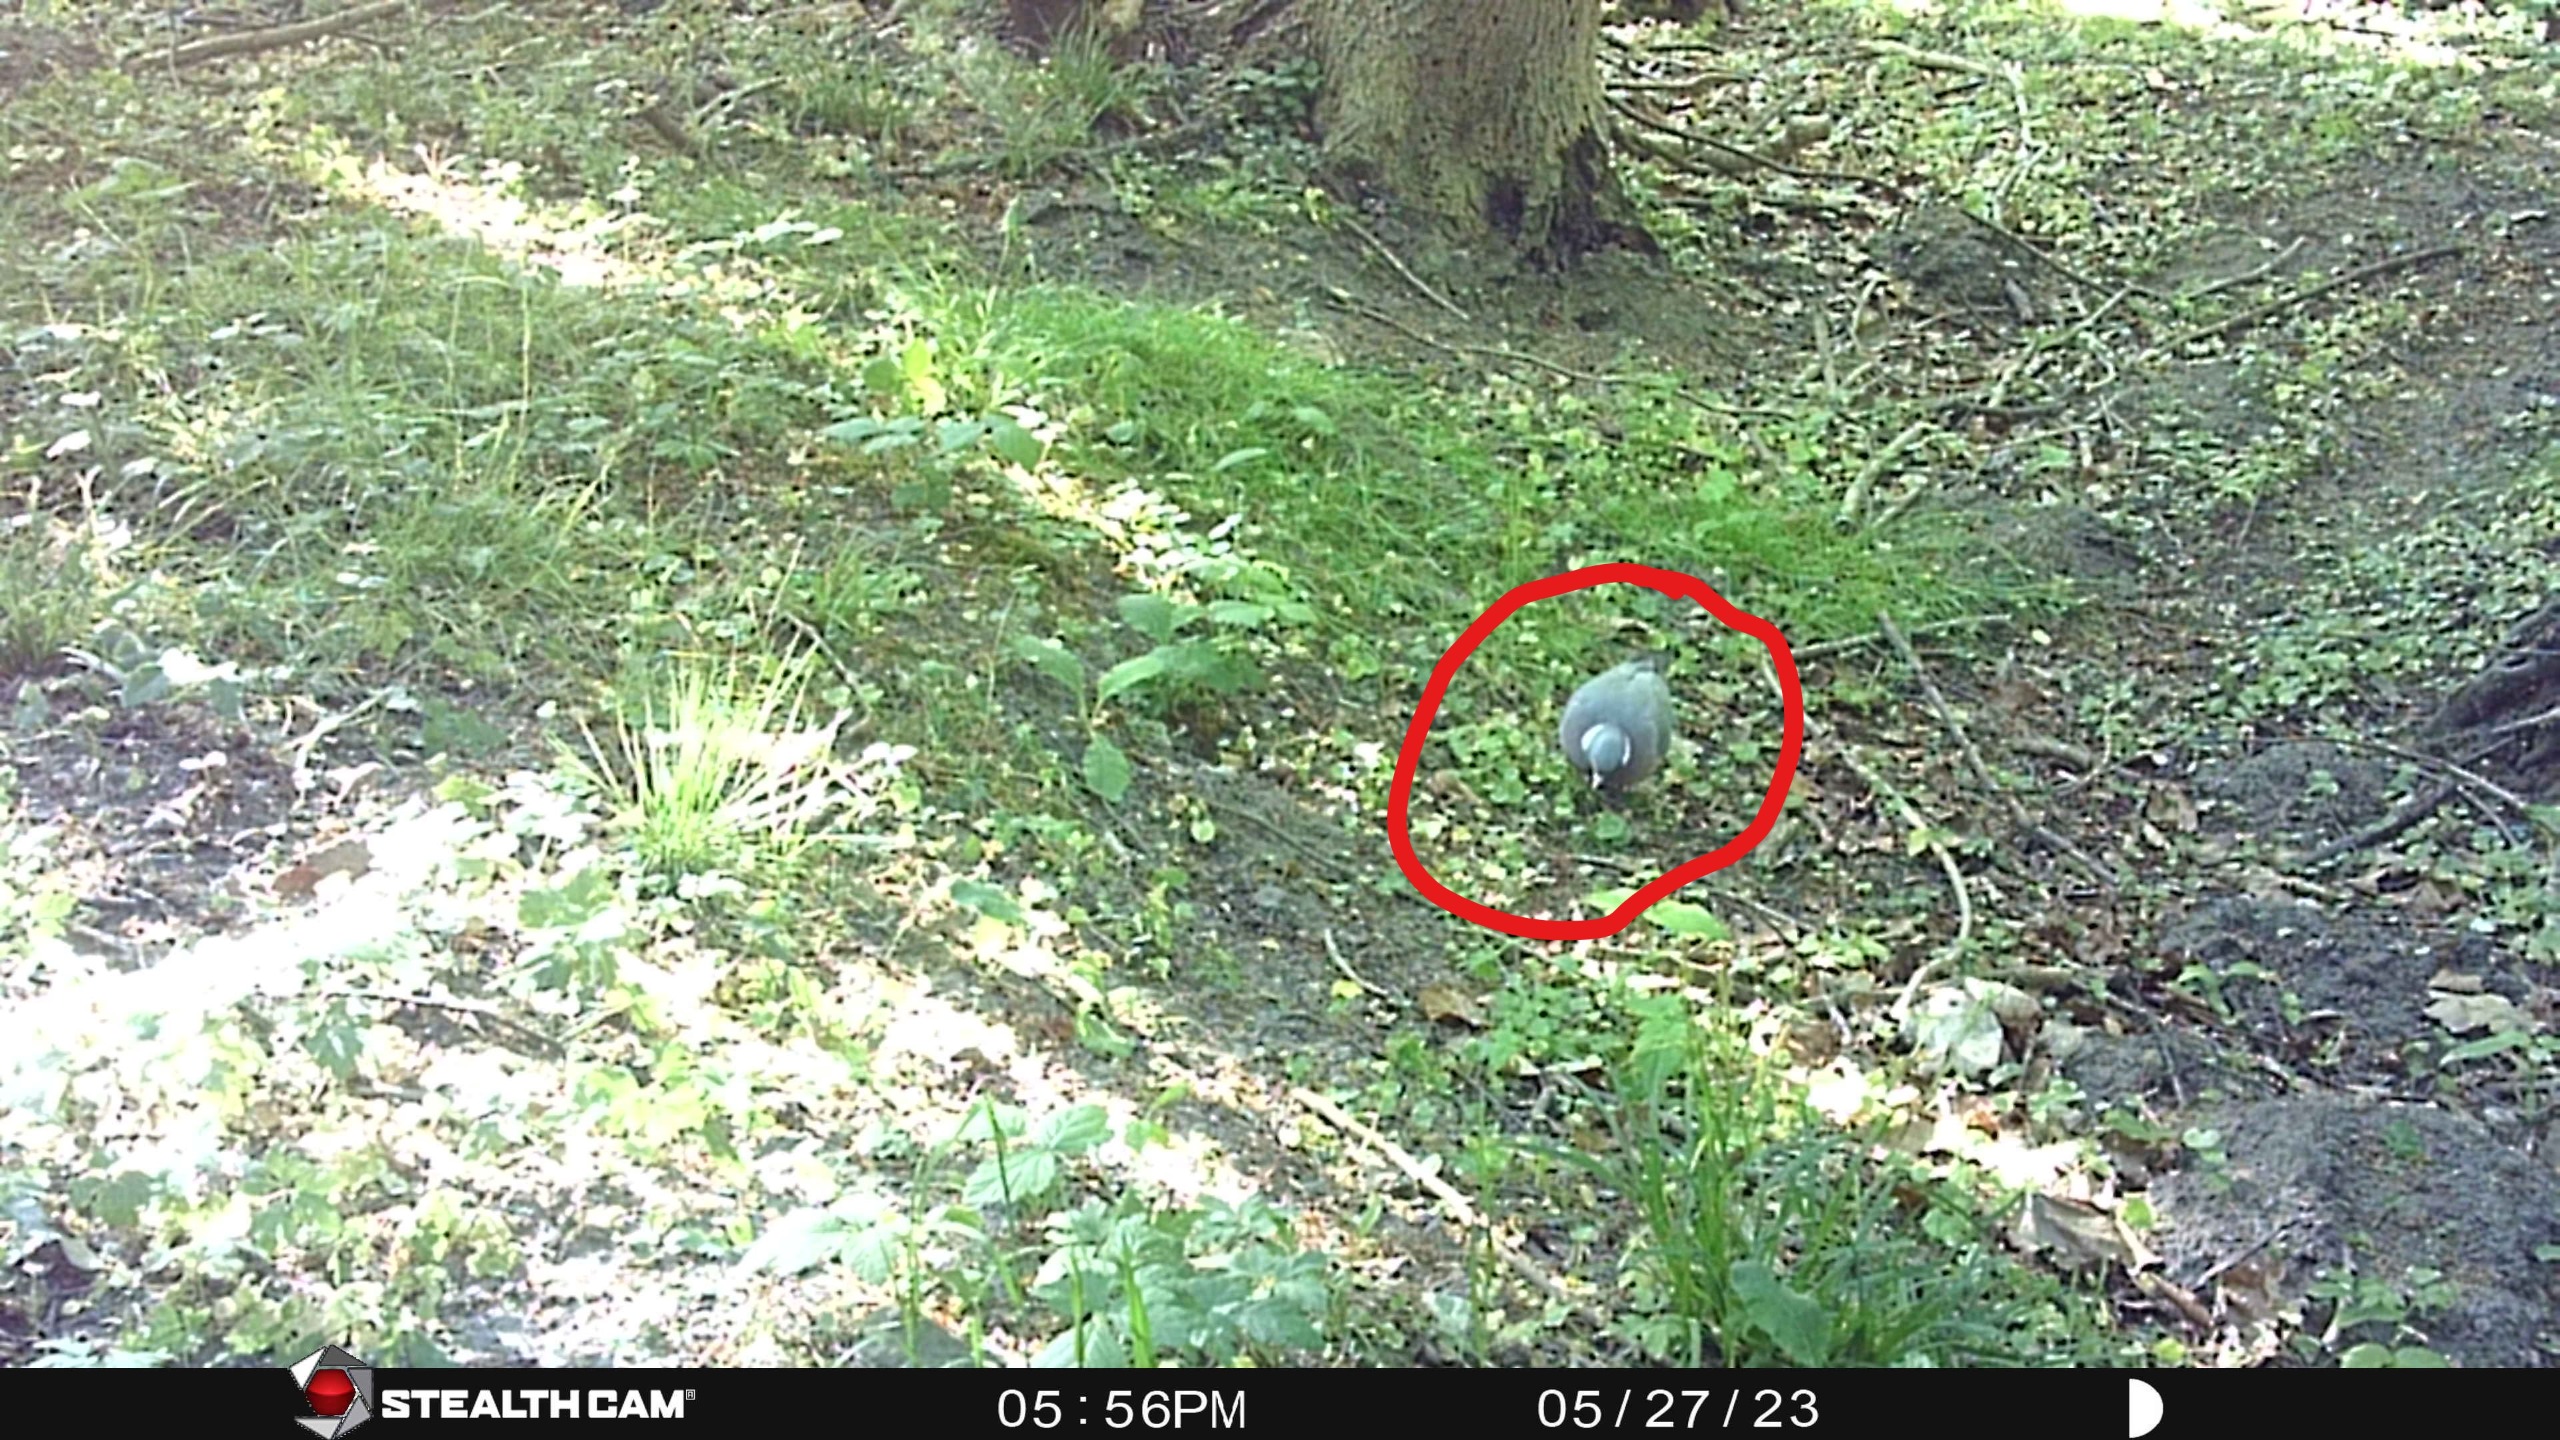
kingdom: Animalia
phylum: Chordata
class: Aves
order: Columbiformes
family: Columbidae
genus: Columba
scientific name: Columba palumbus
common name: Ringdue
